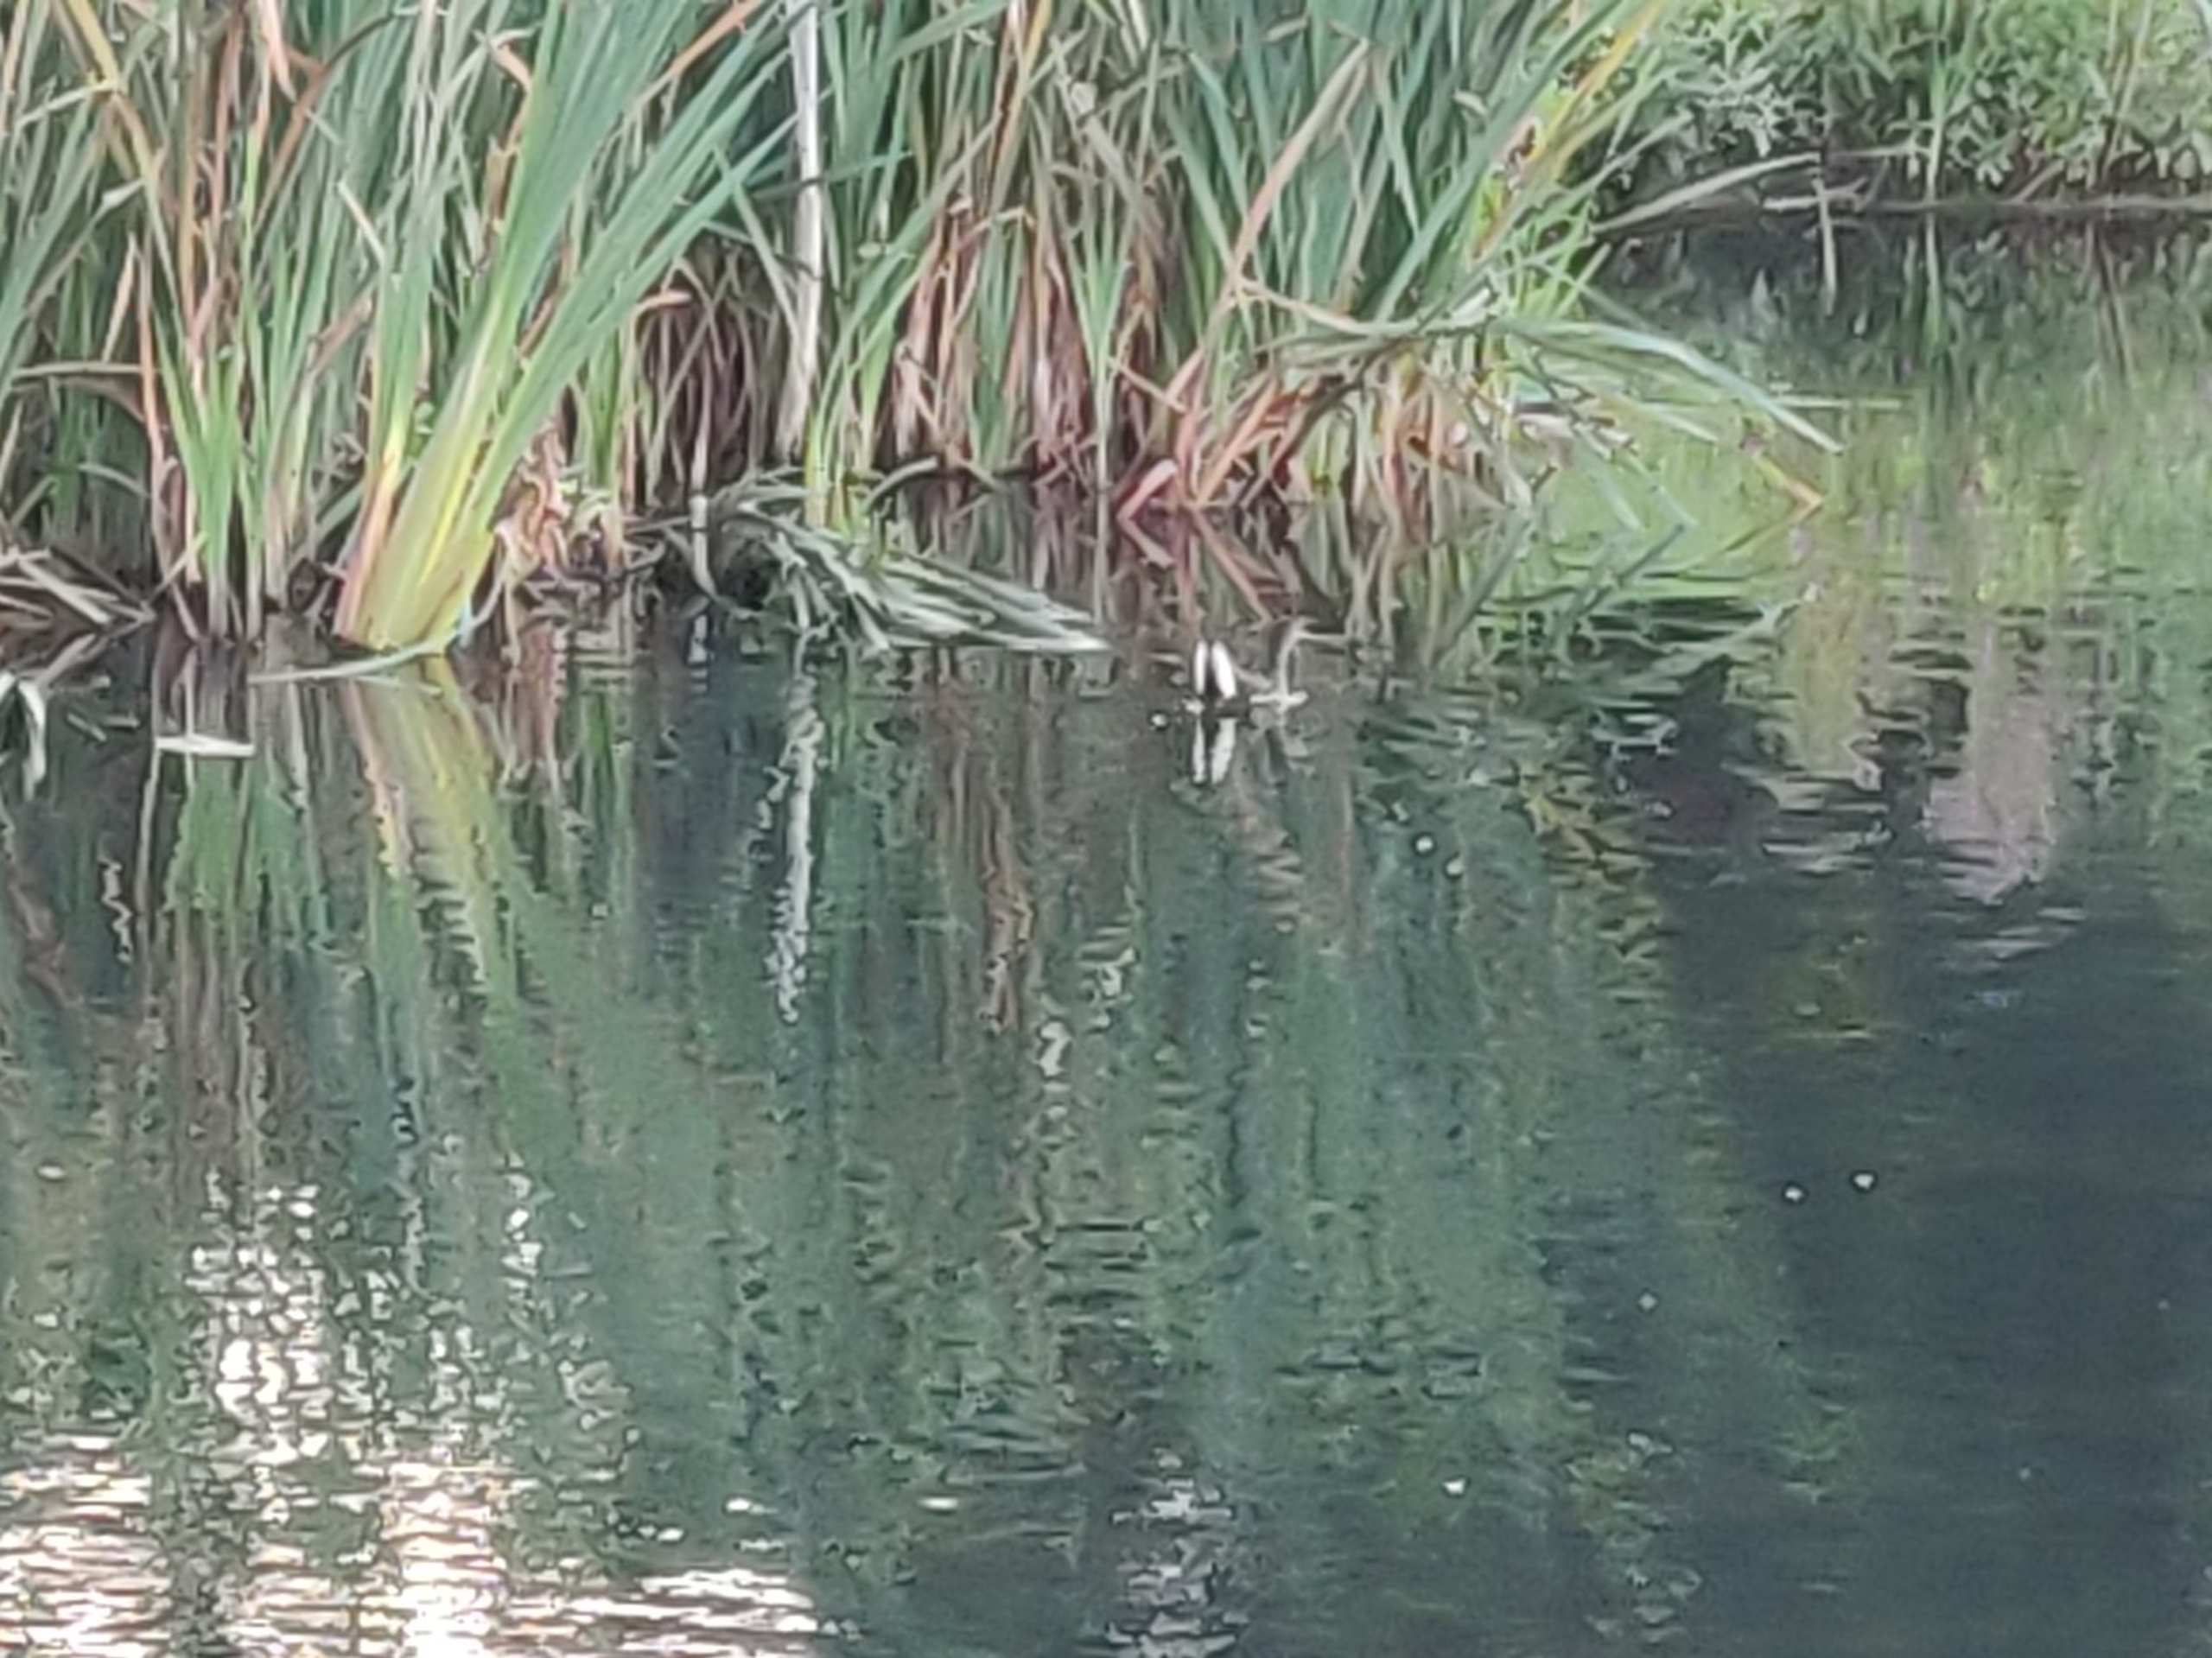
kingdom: Animalia
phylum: Chordata
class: Aves
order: Gruiformes
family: Rallidae
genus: Gallinula
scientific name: Gallinula chloropus
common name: Grønbenet rørhøne
